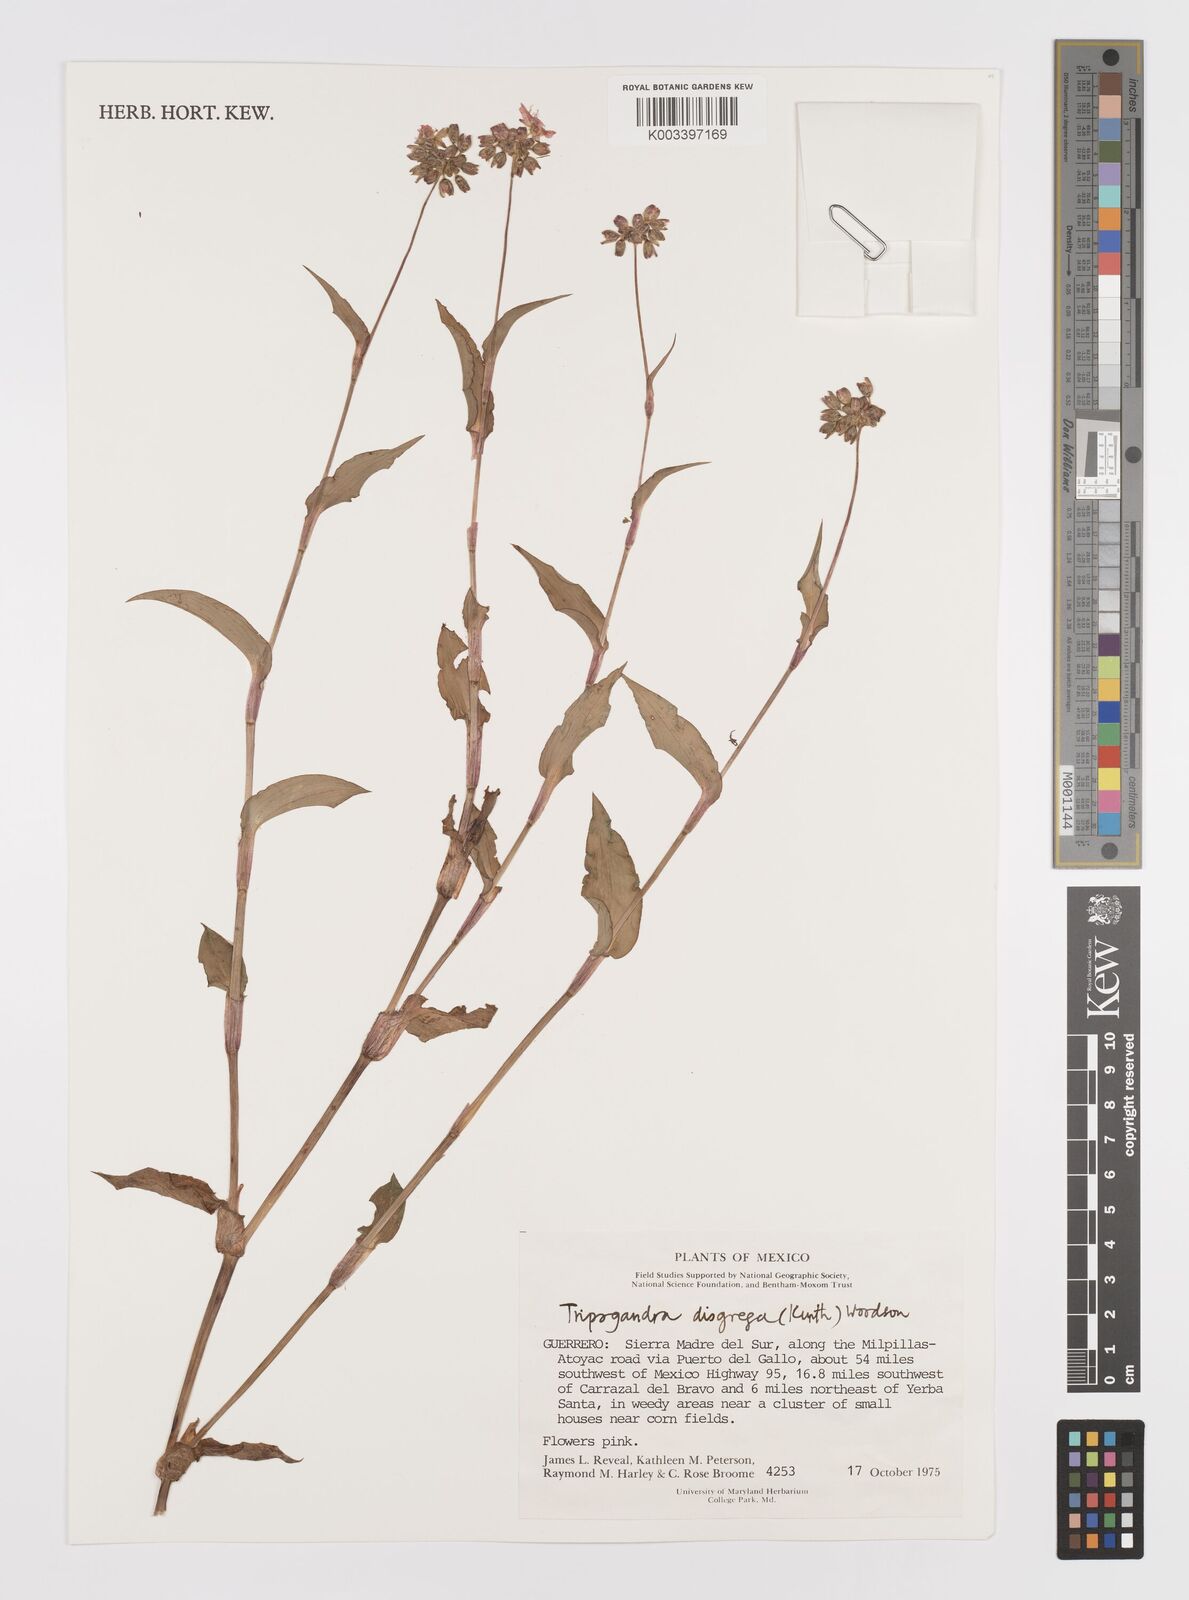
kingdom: Plantae
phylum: Tracheophyta
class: Liliopsida
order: Commelinales
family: Commelinaceae
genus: Callisia
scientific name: Callisia disgrega
